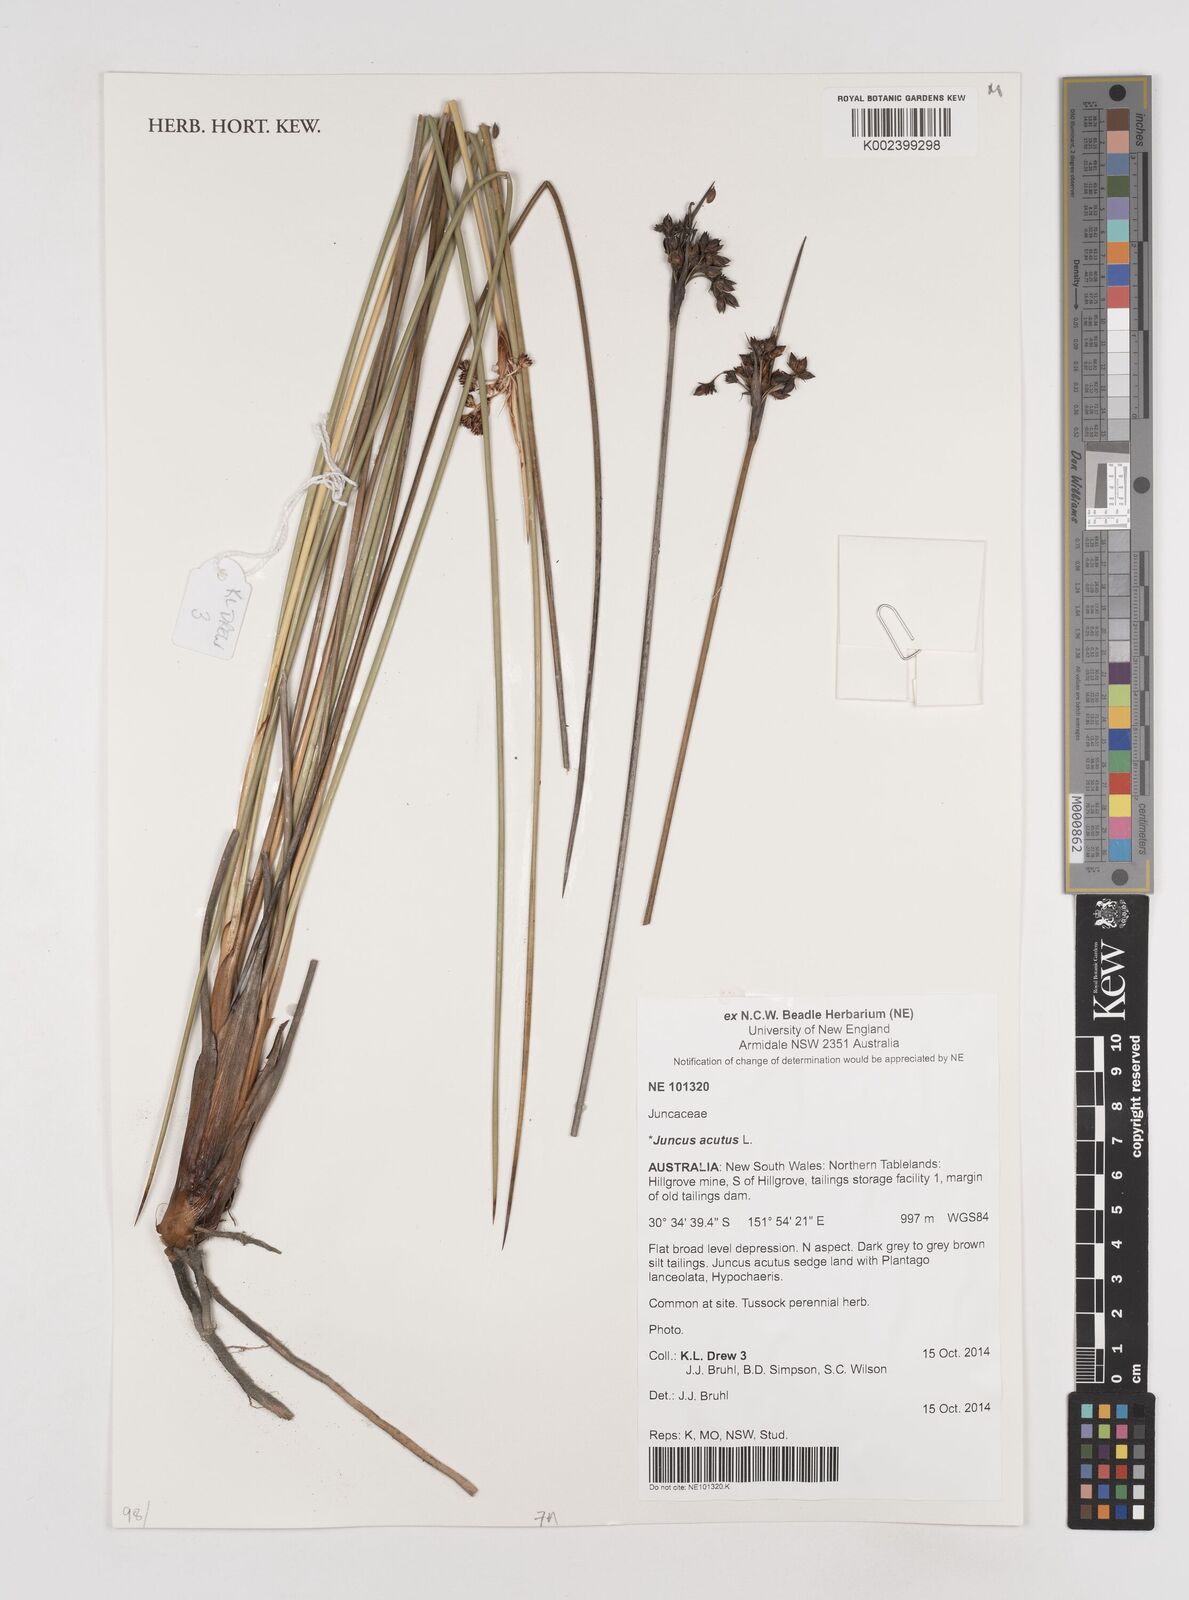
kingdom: Plantae
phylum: Tracheophyta
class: Liliopsida
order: Poales
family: Juncaceae
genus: Juncus
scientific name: Juncus acutus
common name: Sharp rush
